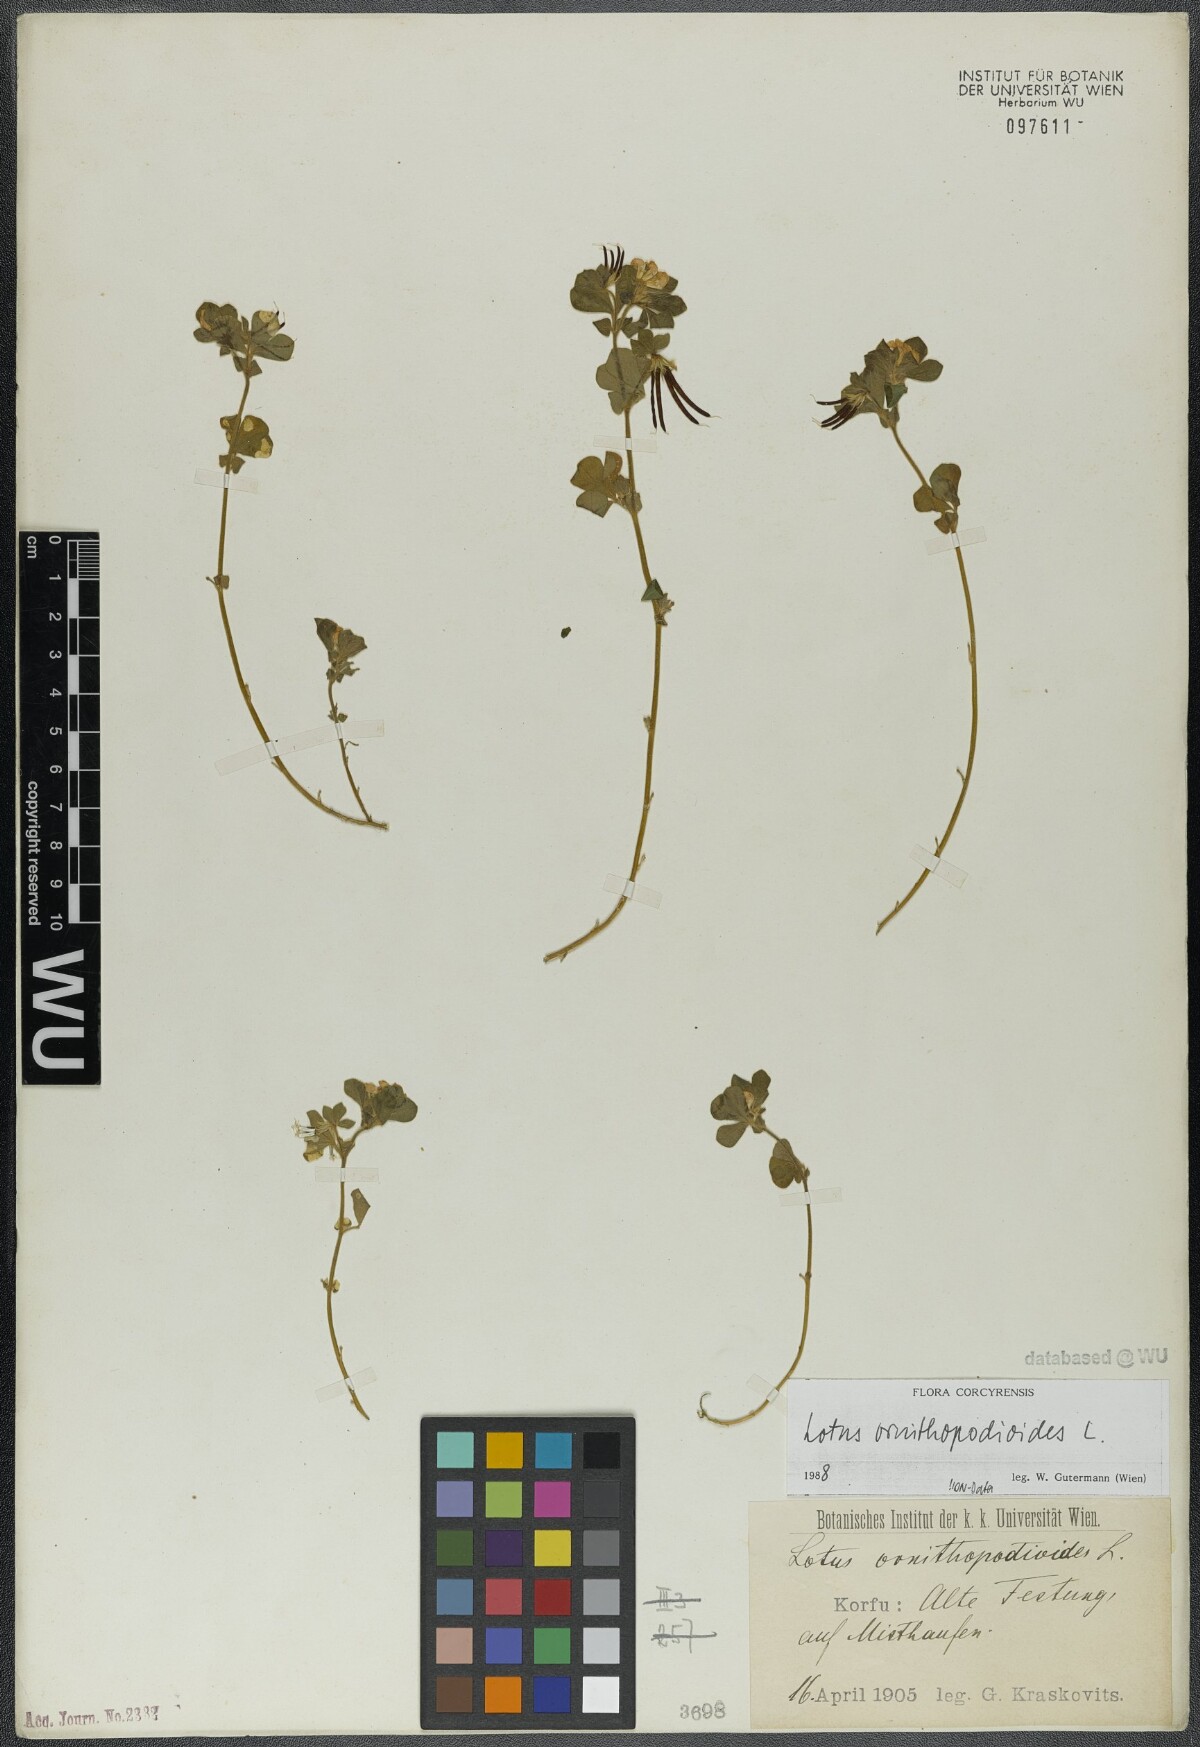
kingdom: Plantae
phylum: Tracheophyta
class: Magnoliopsida
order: Fabales
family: Fabaceae
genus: Lotus
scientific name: Lotus ornithopodioides
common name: Southern bird's-foot trefoil
